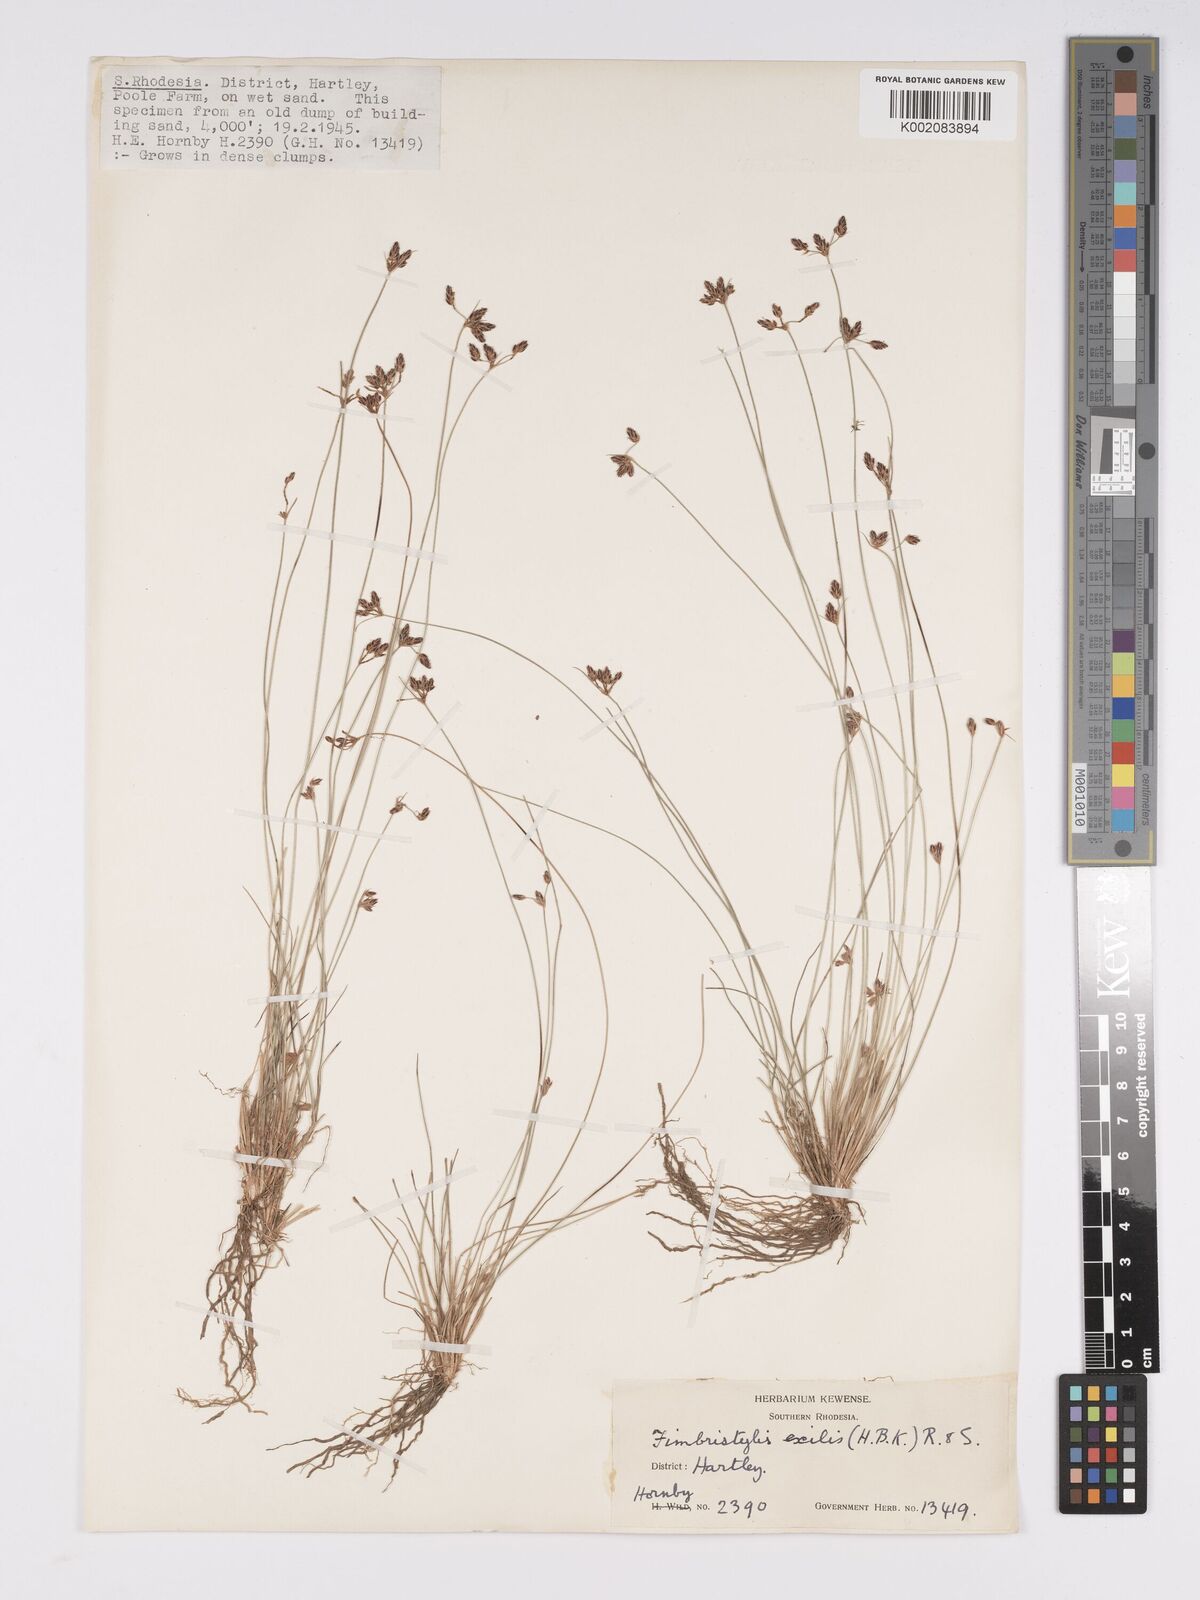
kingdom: Plantae
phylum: Tracheophyta
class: Liliopsida
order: Poales
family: Cyperaceae
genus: Bulbostylis
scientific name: Bulbostylis hispidula
